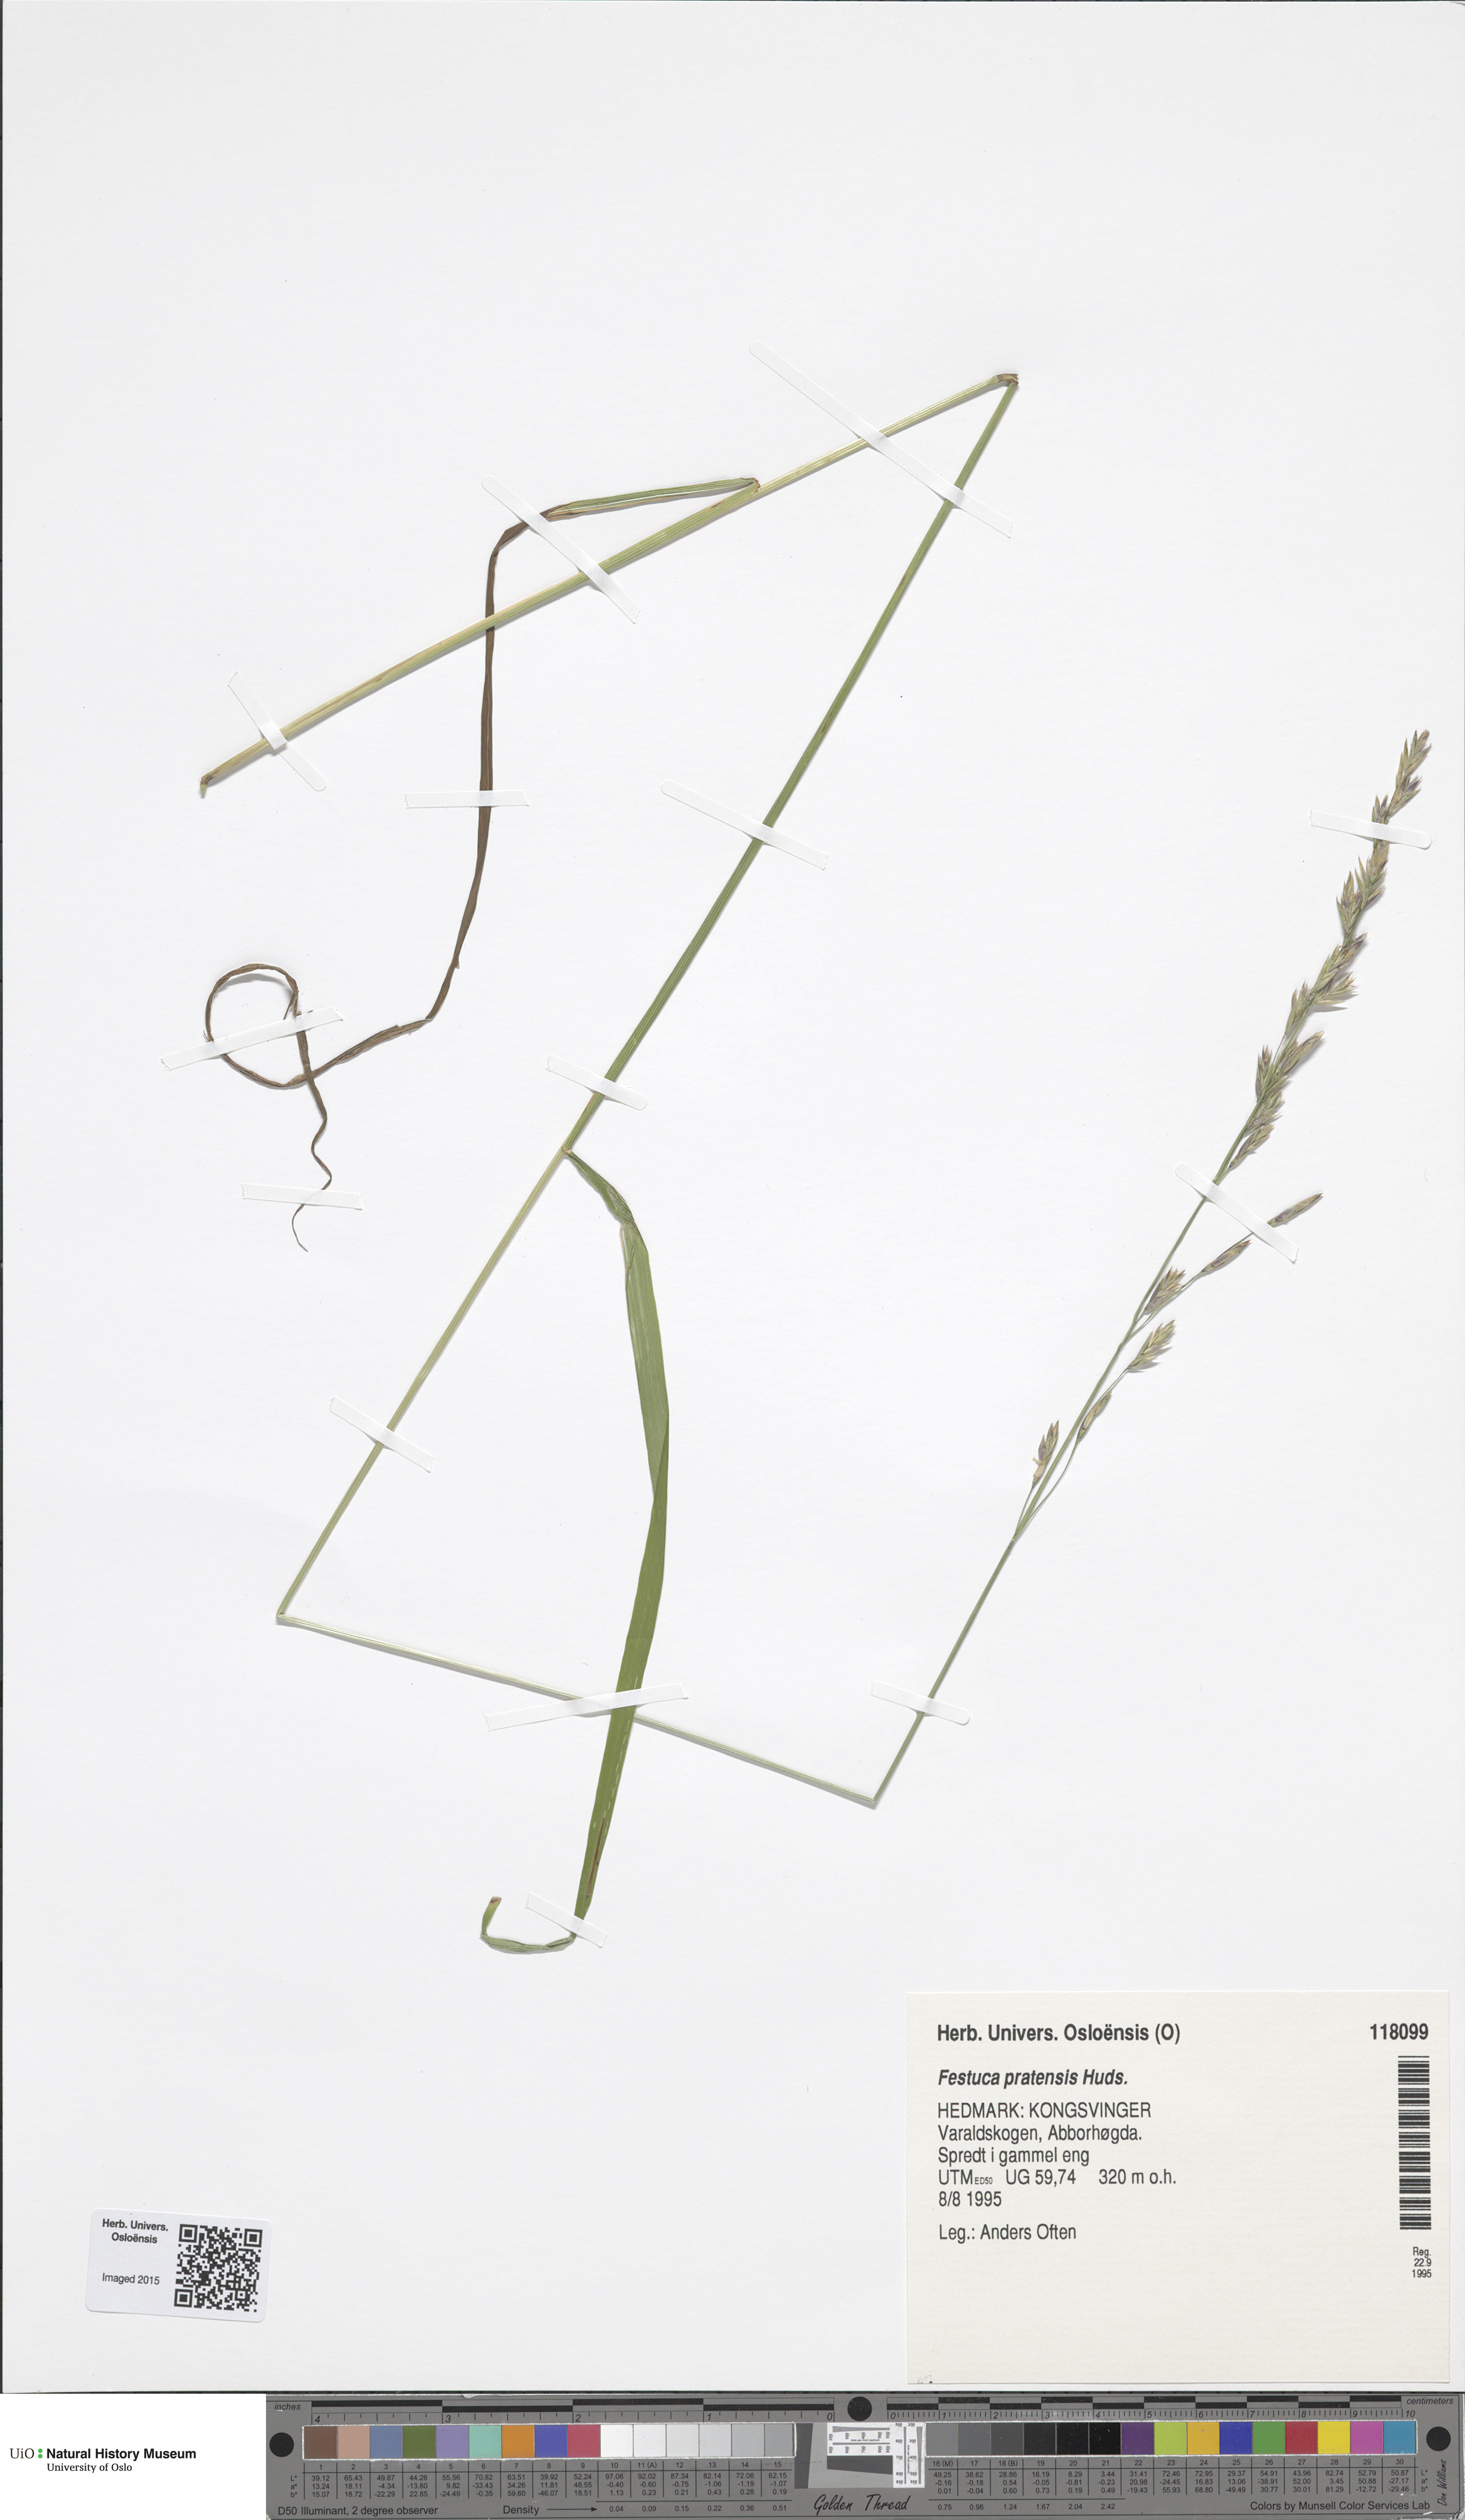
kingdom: Plantae
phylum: Tracheophyta
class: Liliopsida
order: Poales
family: Poaceae
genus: Lolium
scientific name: Lolium pratense
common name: Dover grass
